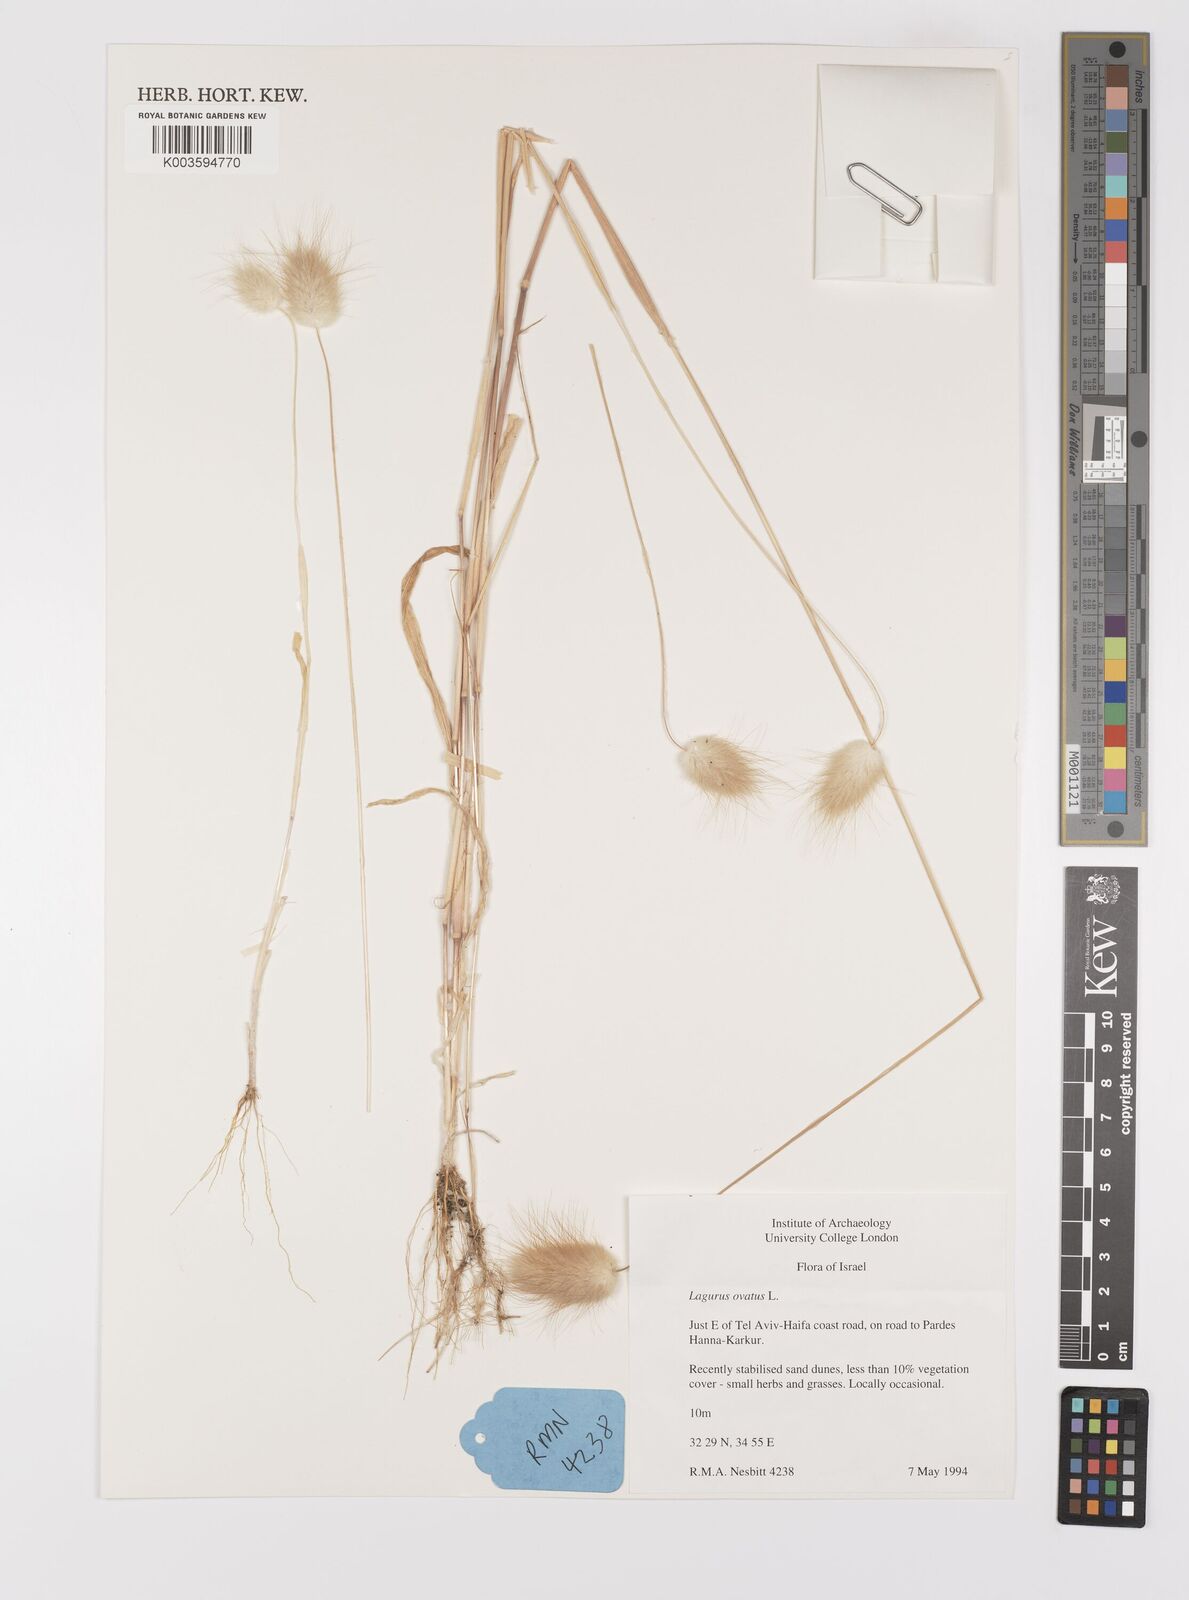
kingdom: Plantae
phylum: Tracheophyta
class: Liliopsida
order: Poales
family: Poaceae
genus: Lagurus
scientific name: Lagurus ovatus
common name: Hare's-tail
